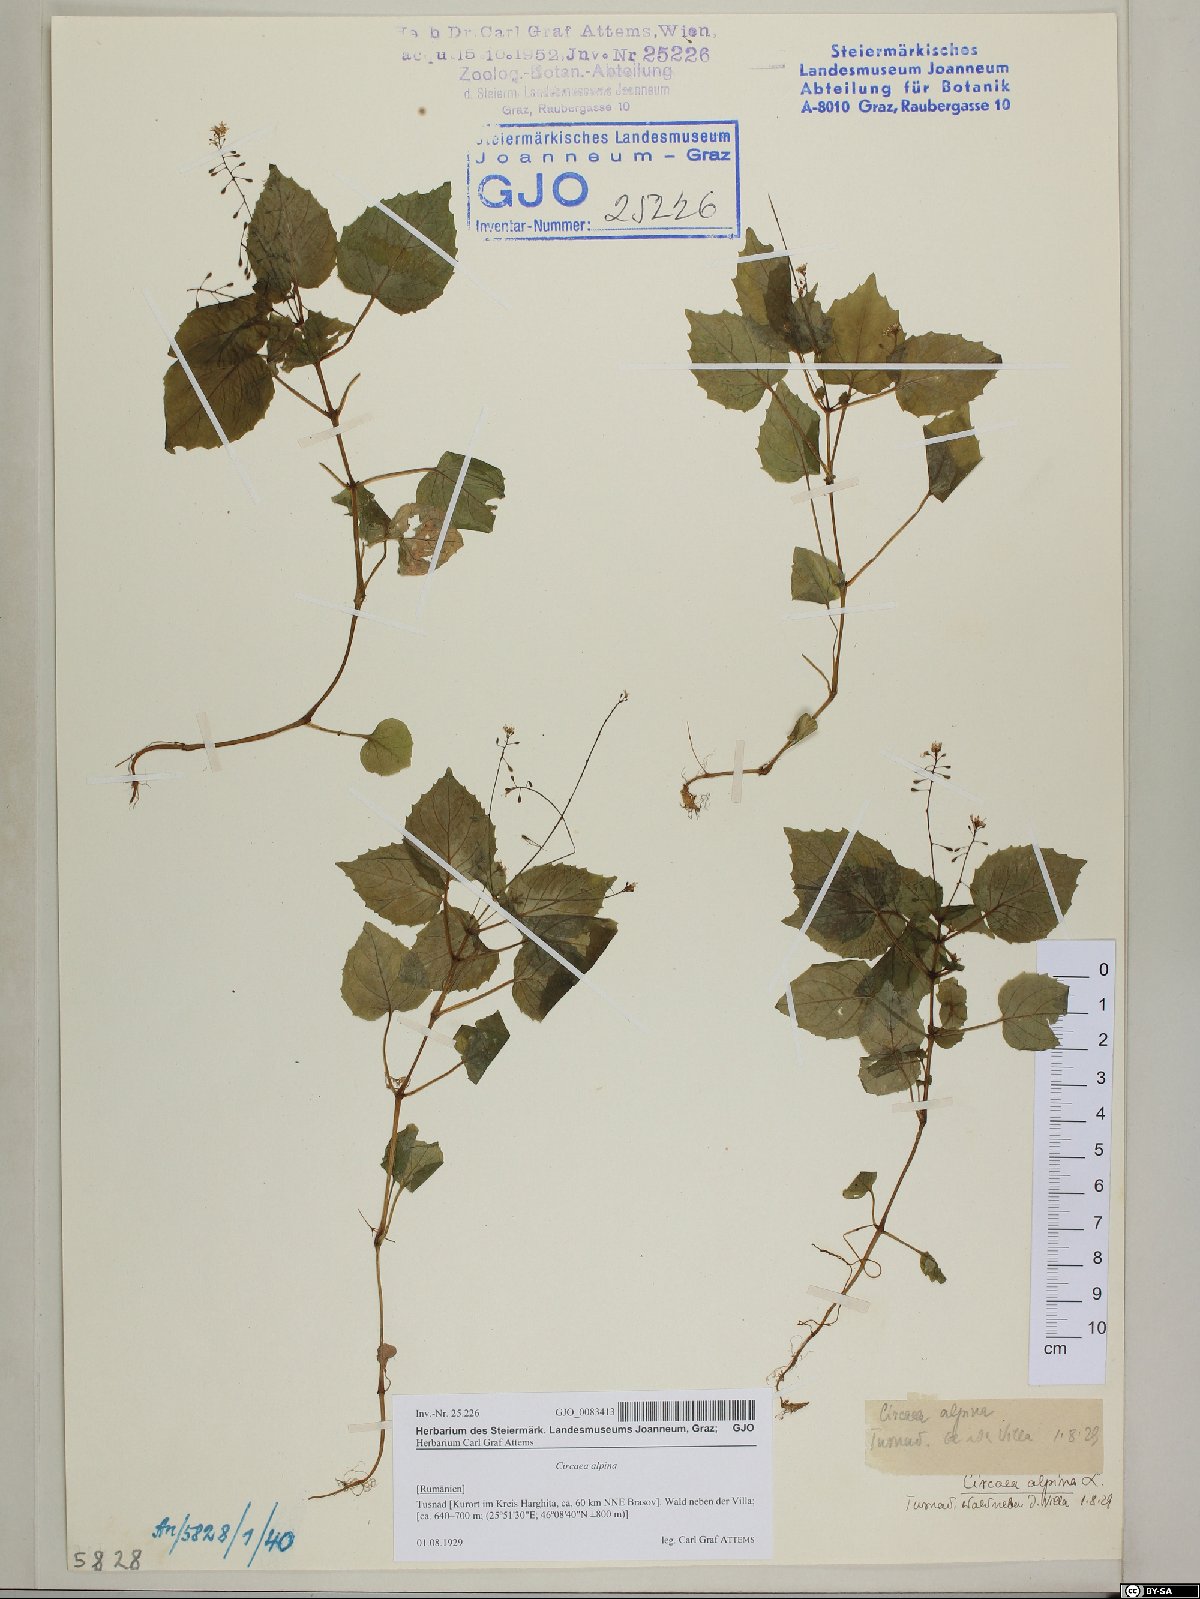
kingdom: Plantae
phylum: Tracheophyta
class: Magnoliopsida
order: Myrtales
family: Onagraceae
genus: Circaea
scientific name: Circaea alpina
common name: Alpine enchanter's-nightshade
